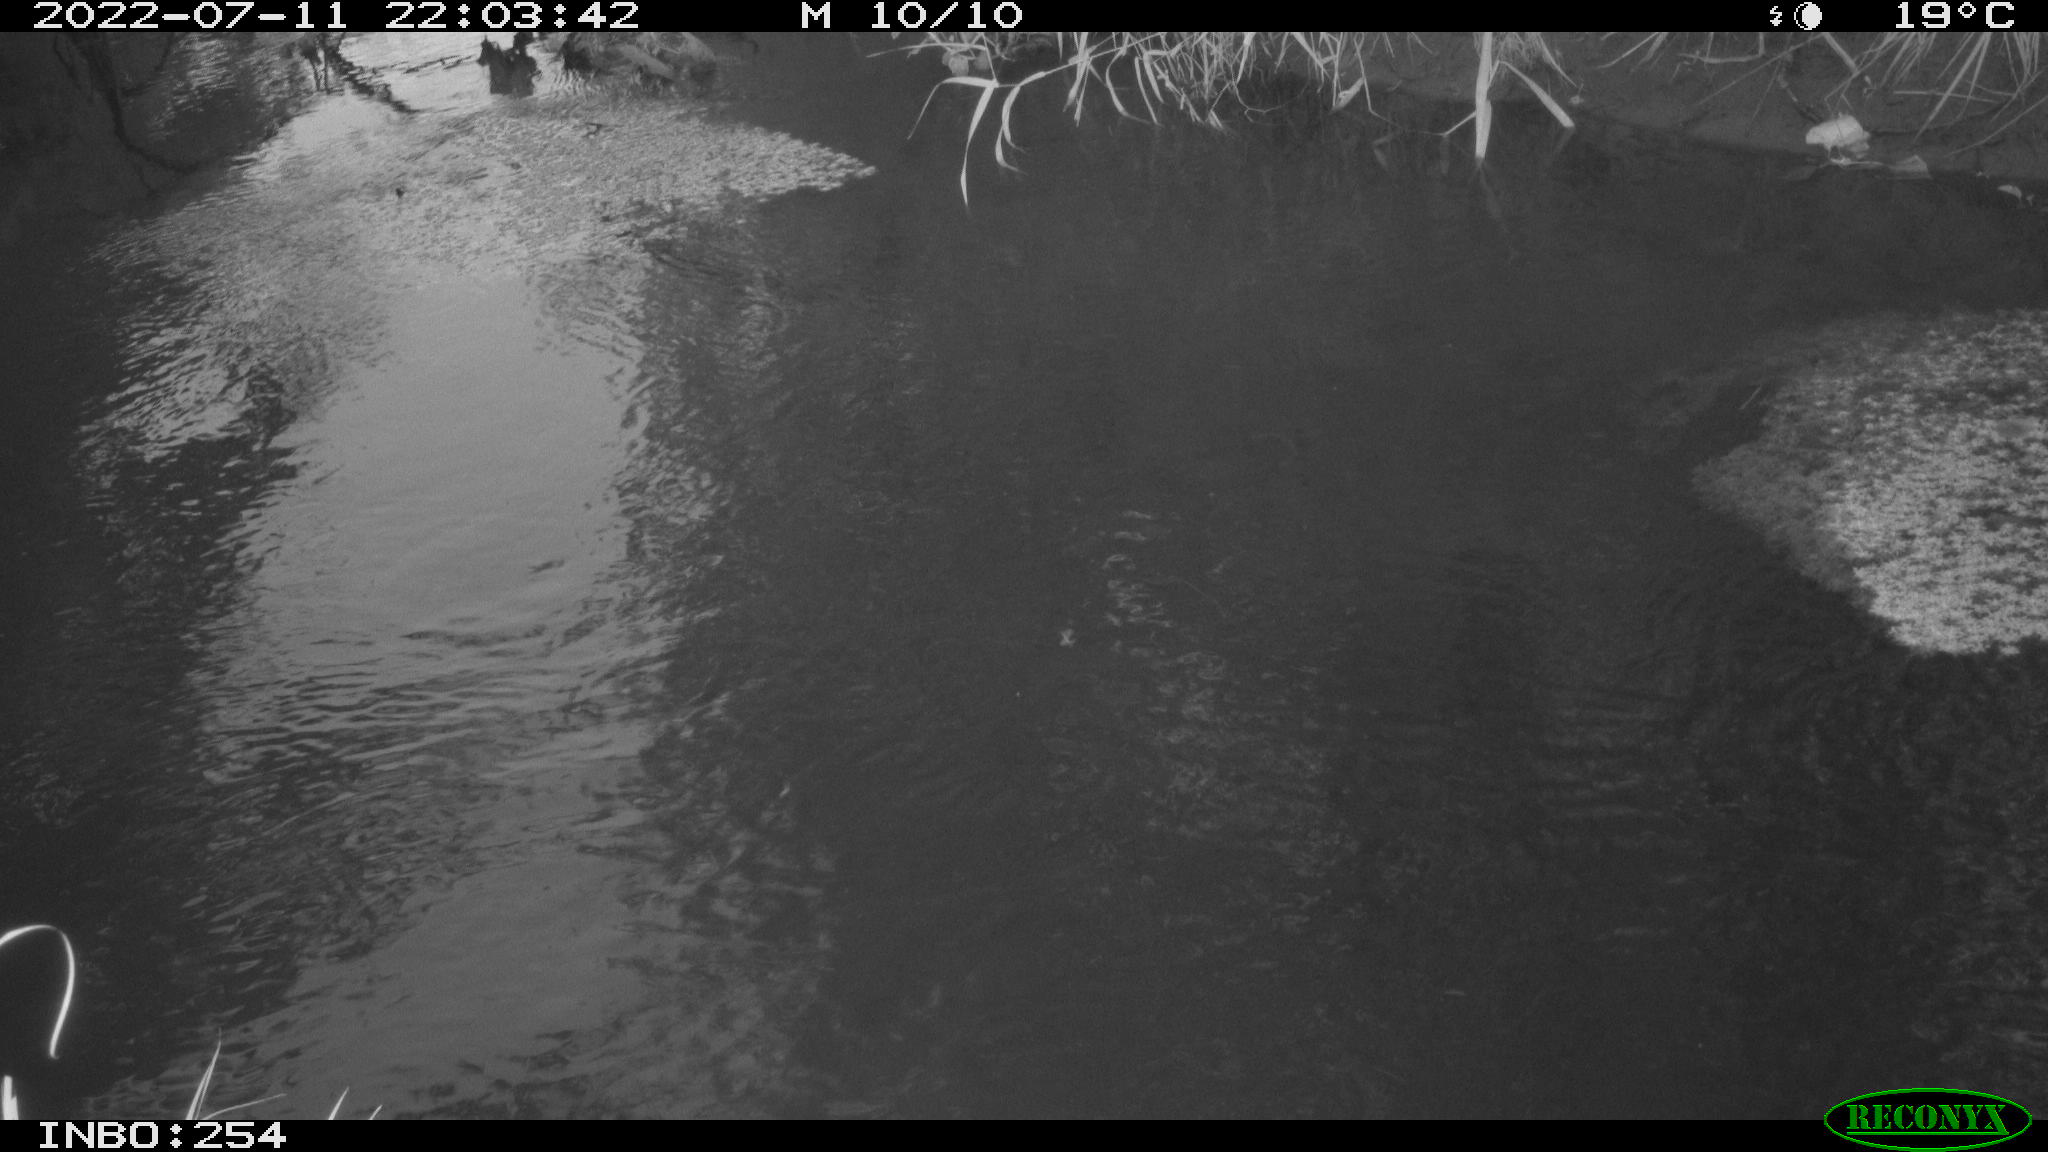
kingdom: Animalia
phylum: Chordata
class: Aves
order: Anseriformes
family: Anatidae
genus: Anas
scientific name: Anas platyrhynchos
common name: Mallard
